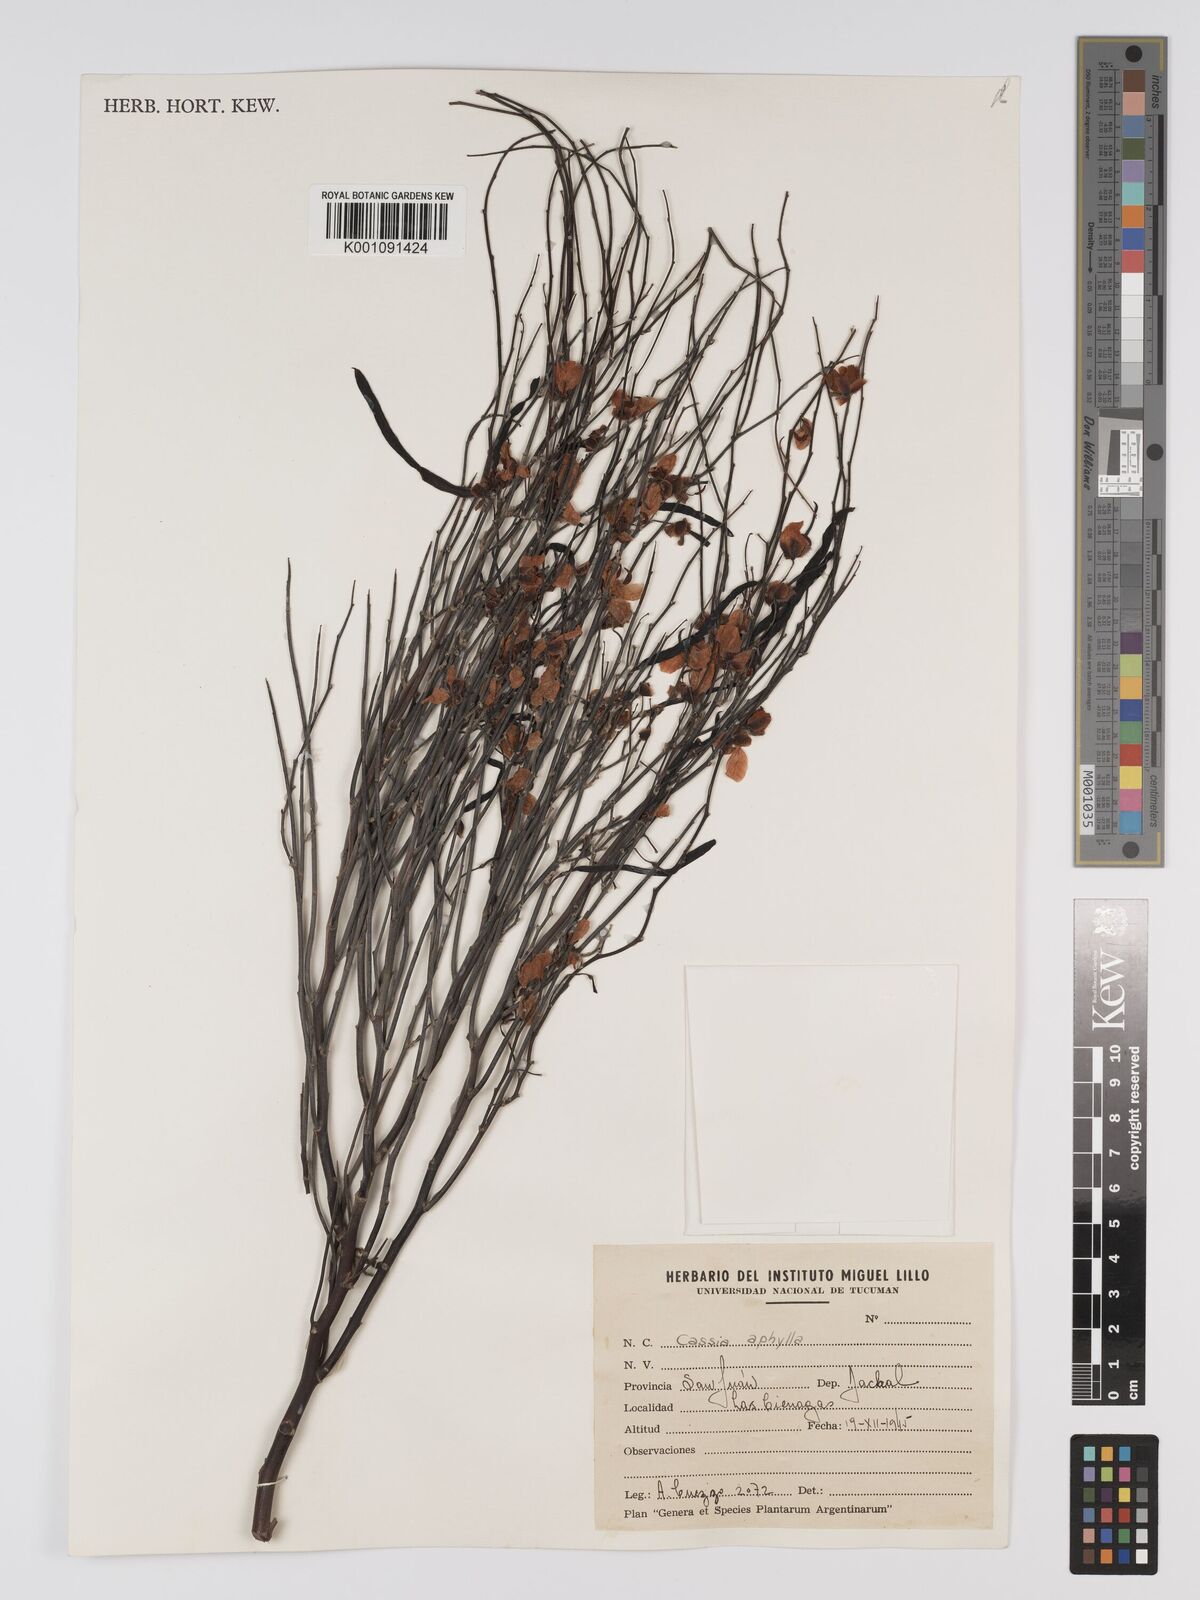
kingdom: Plantae
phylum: Tracheophyta
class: Magnoliopsida
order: Fabales
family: Fabaceae
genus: Senna
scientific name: Senna aphylla
